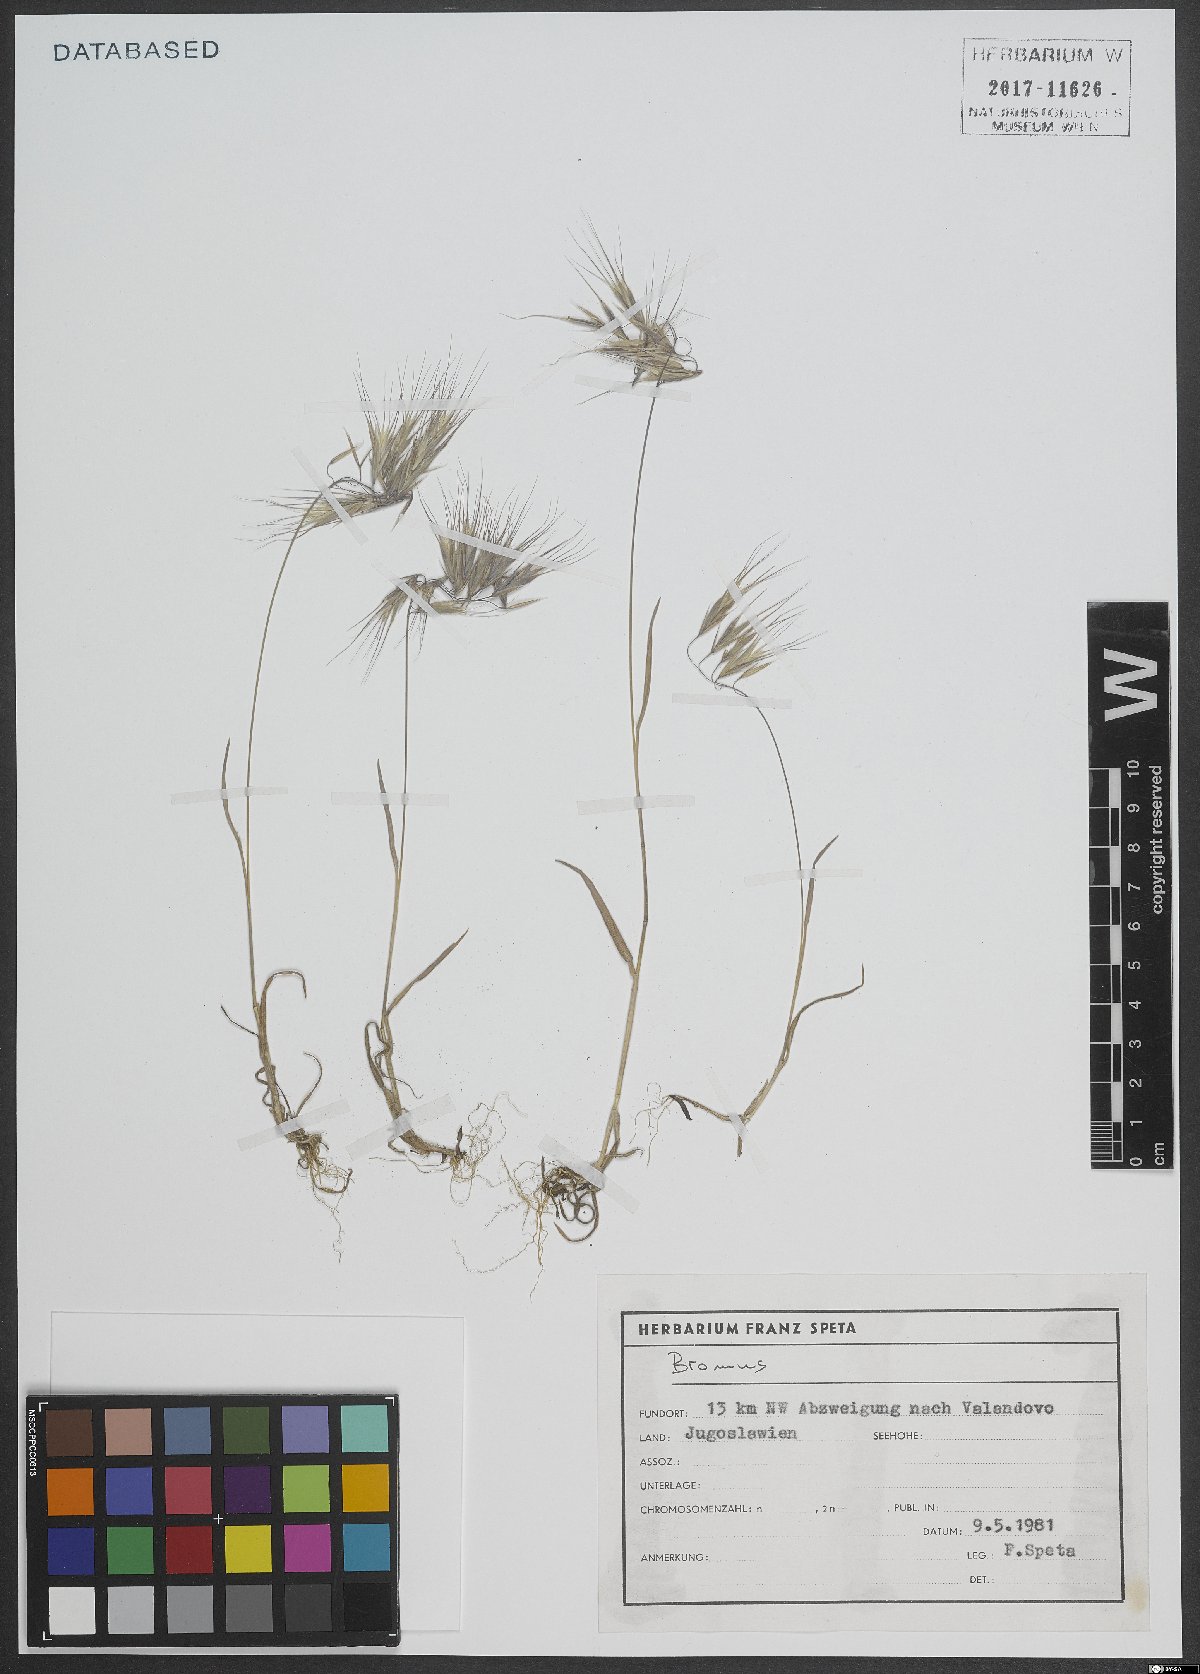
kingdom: Plantae
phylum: Tracheophyta
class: Liliopsida
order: Poales
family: Poaceae
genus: Bromus
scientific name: Bromus
